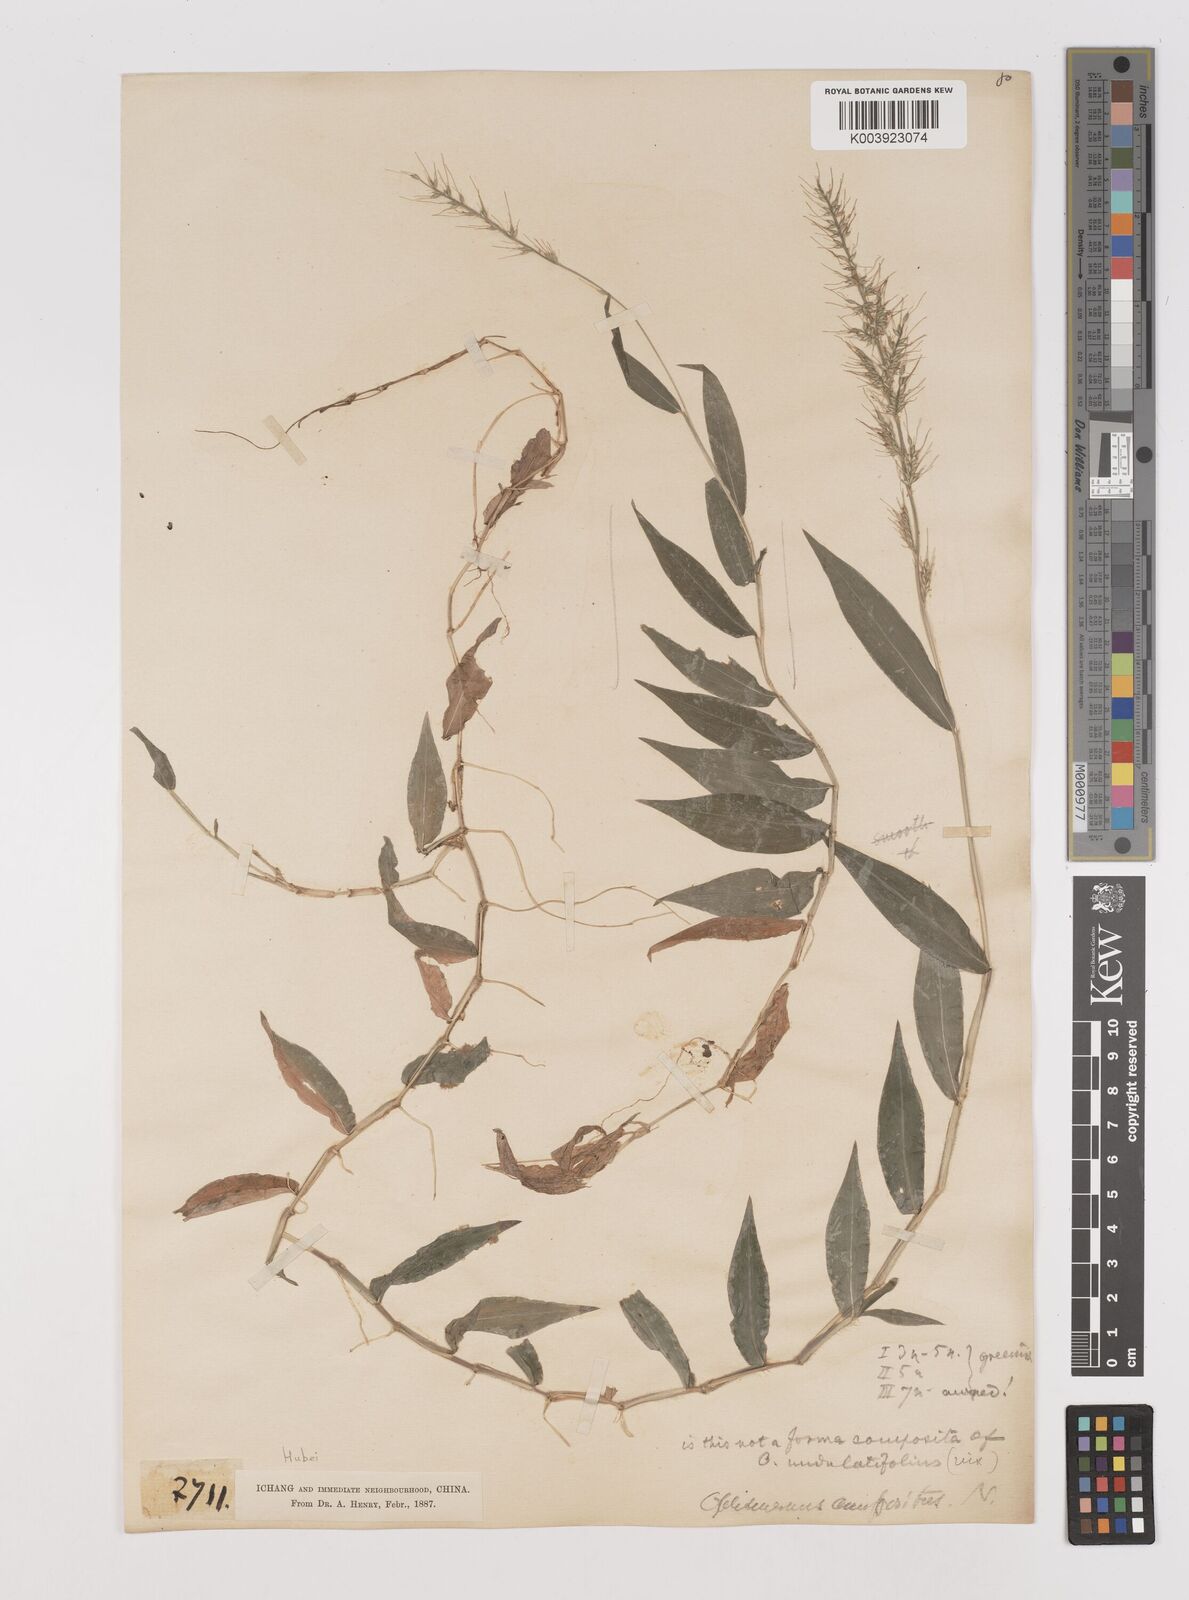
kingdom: Plantae
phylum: Tracheophyta
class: Liliopsida
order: Poales
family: Poaceae
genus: Oplismenus
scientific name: Oplismenus hirtellus
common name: Basketgrass
